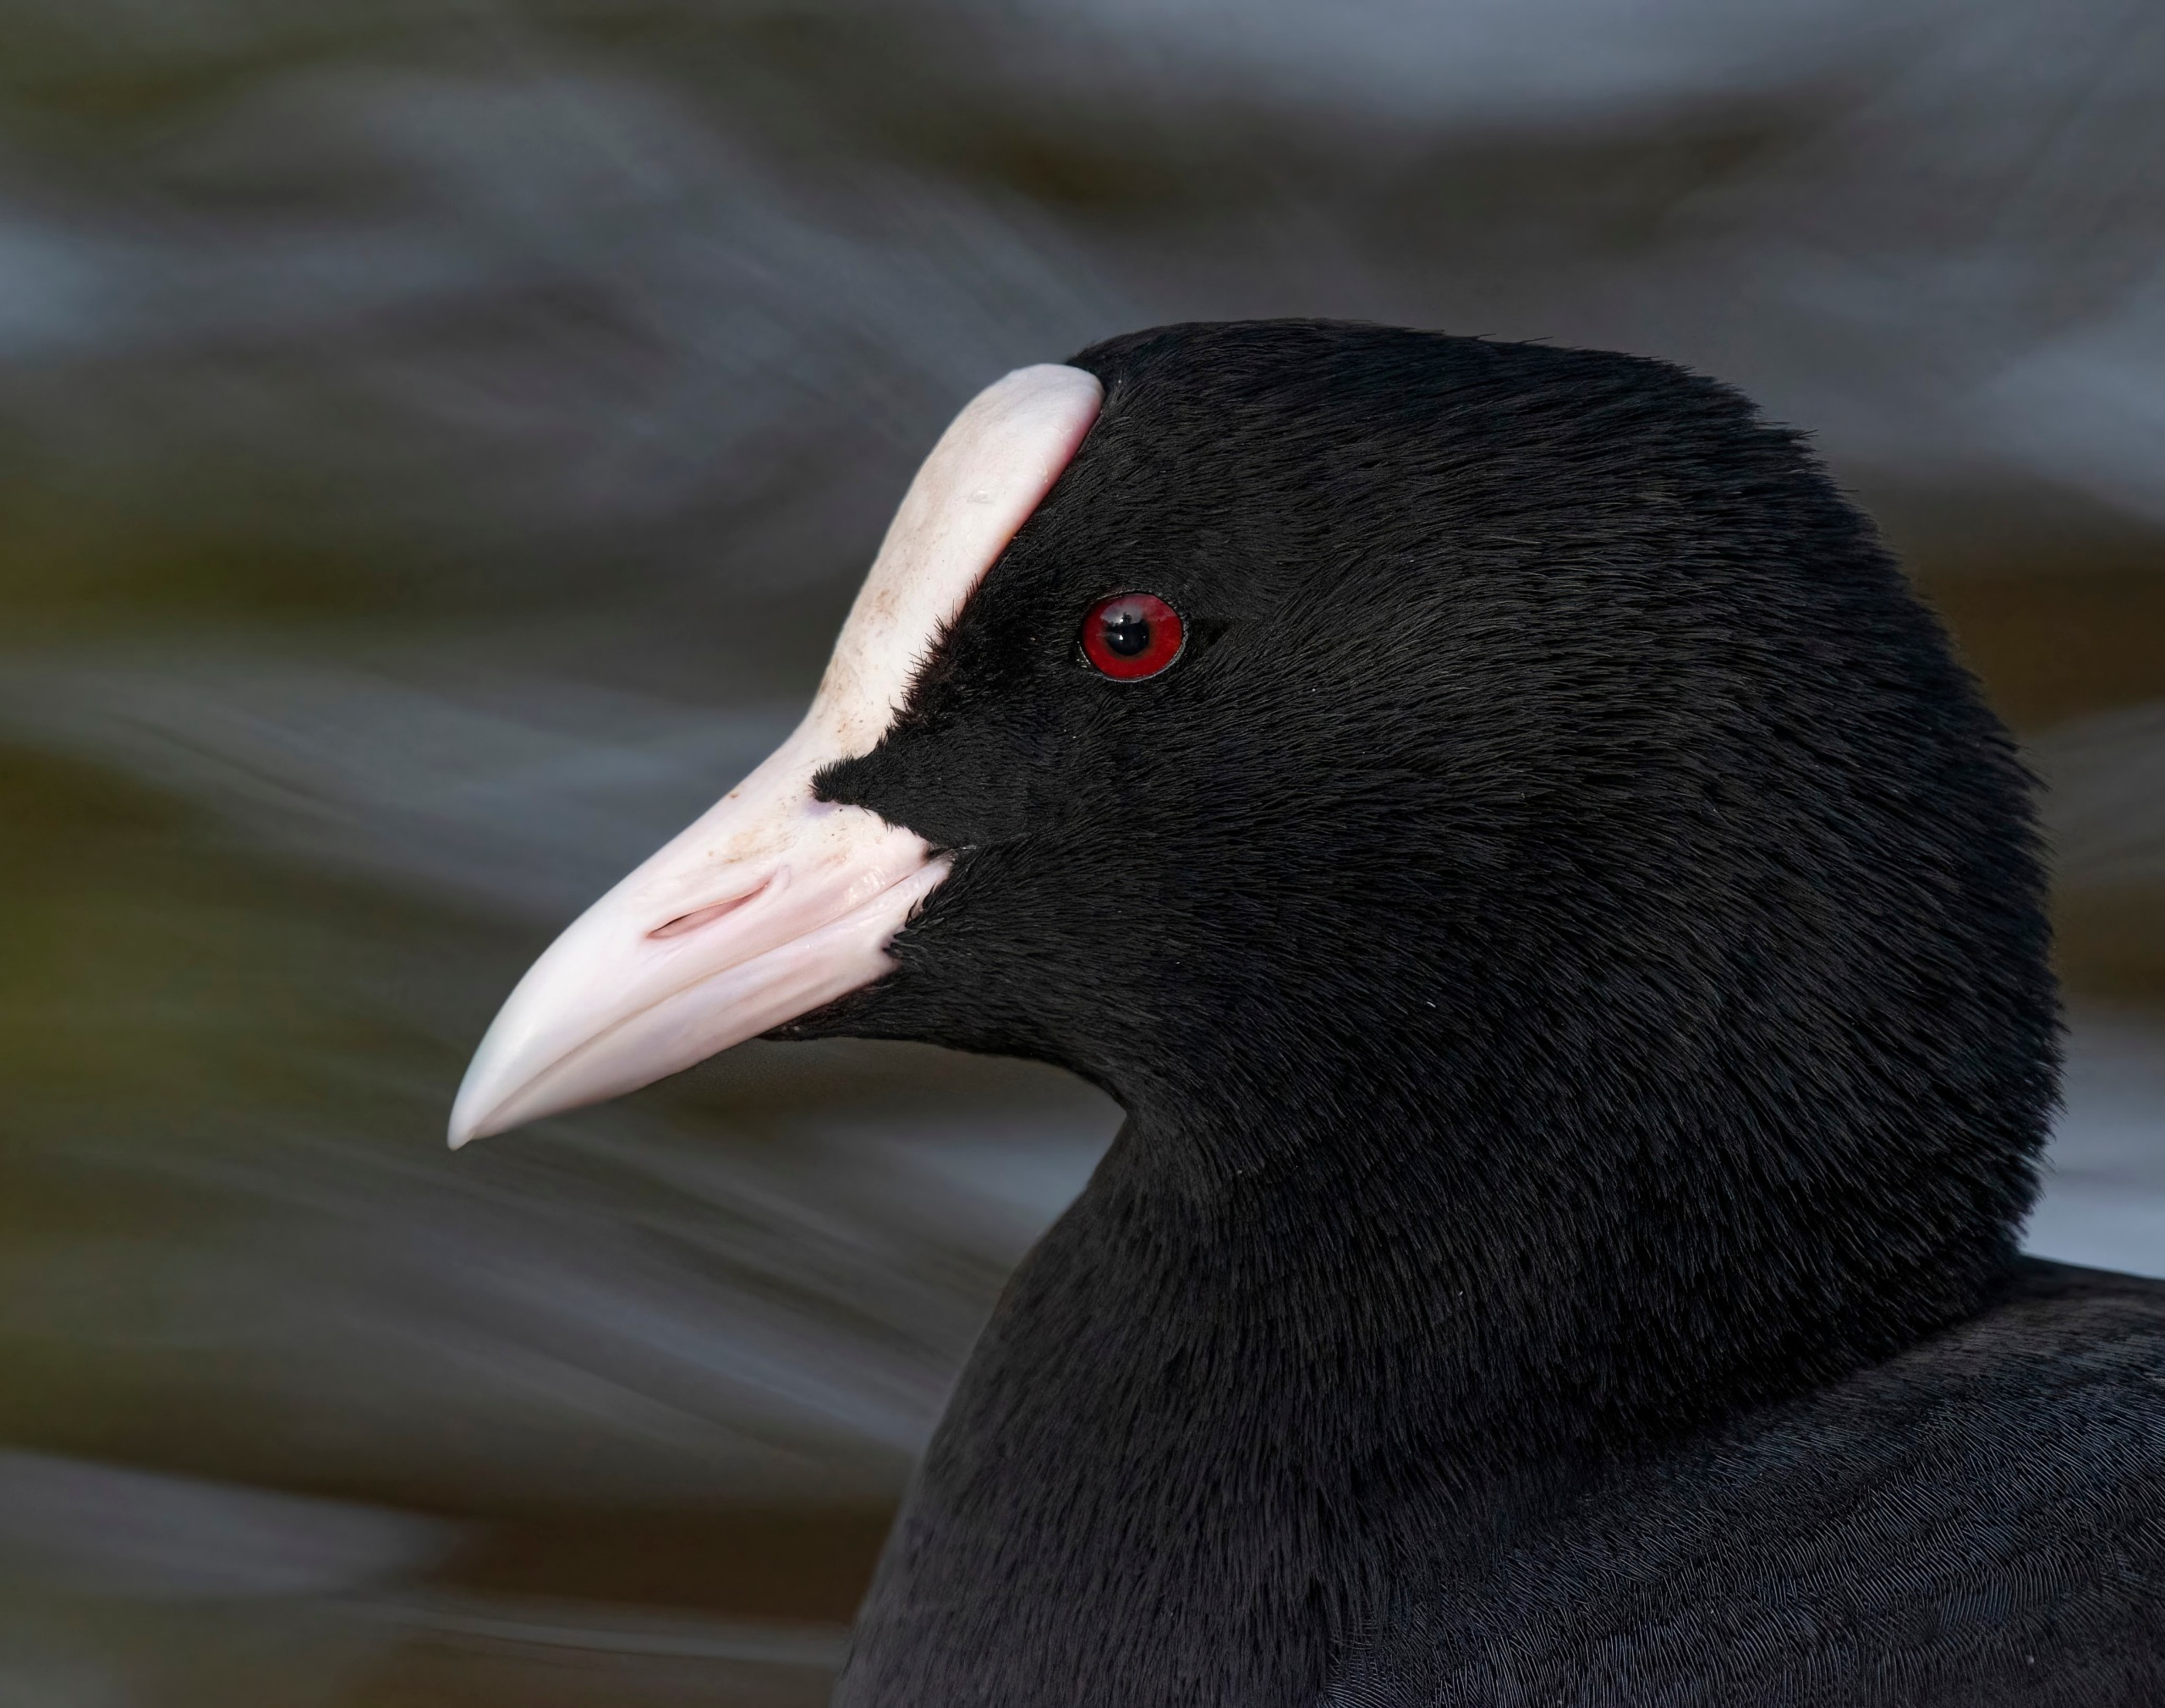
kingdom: Animalia
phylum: Chordata
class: Aves
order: Gruiformes
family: Rallidae
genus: Fulica
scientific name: Fulica atra
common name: Blishøne
